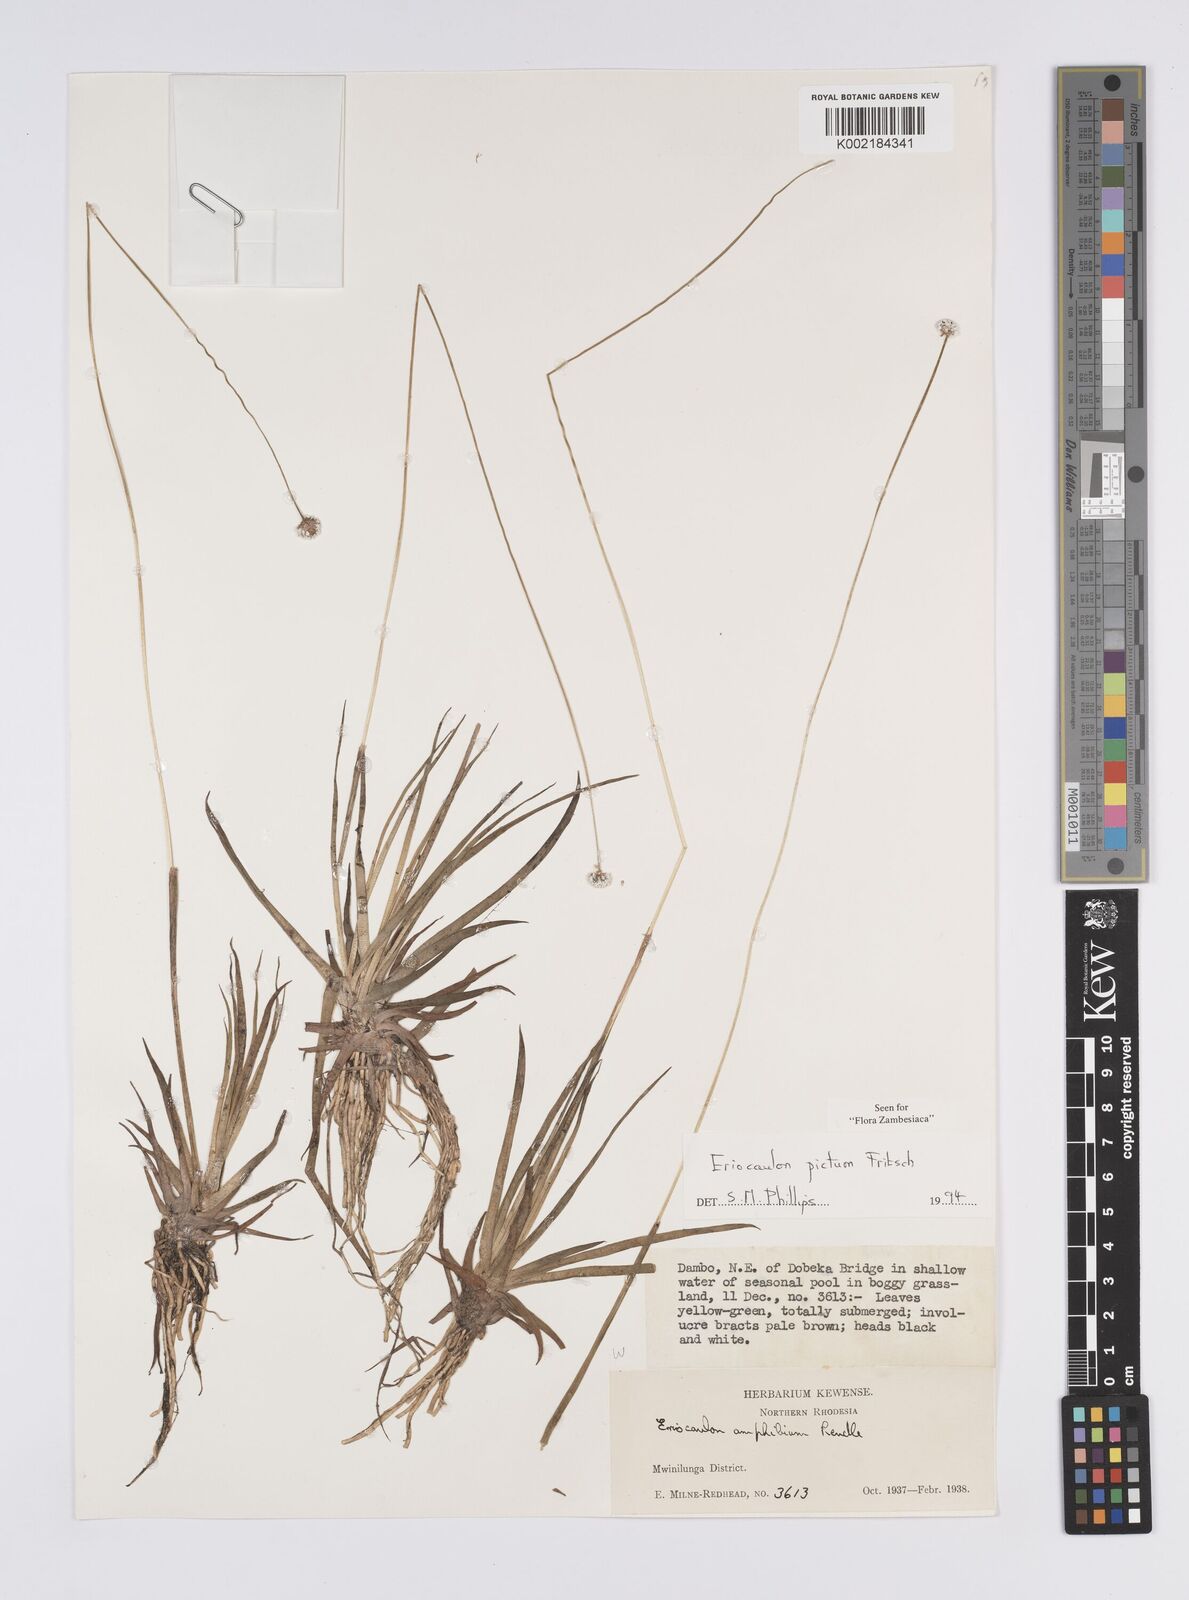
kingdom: Plantae
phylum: Tracheophyta
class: Liliopsida
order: Poales
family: Eriocaulaceae
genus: Eriocaulon
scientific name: Eriocaulon pictum
